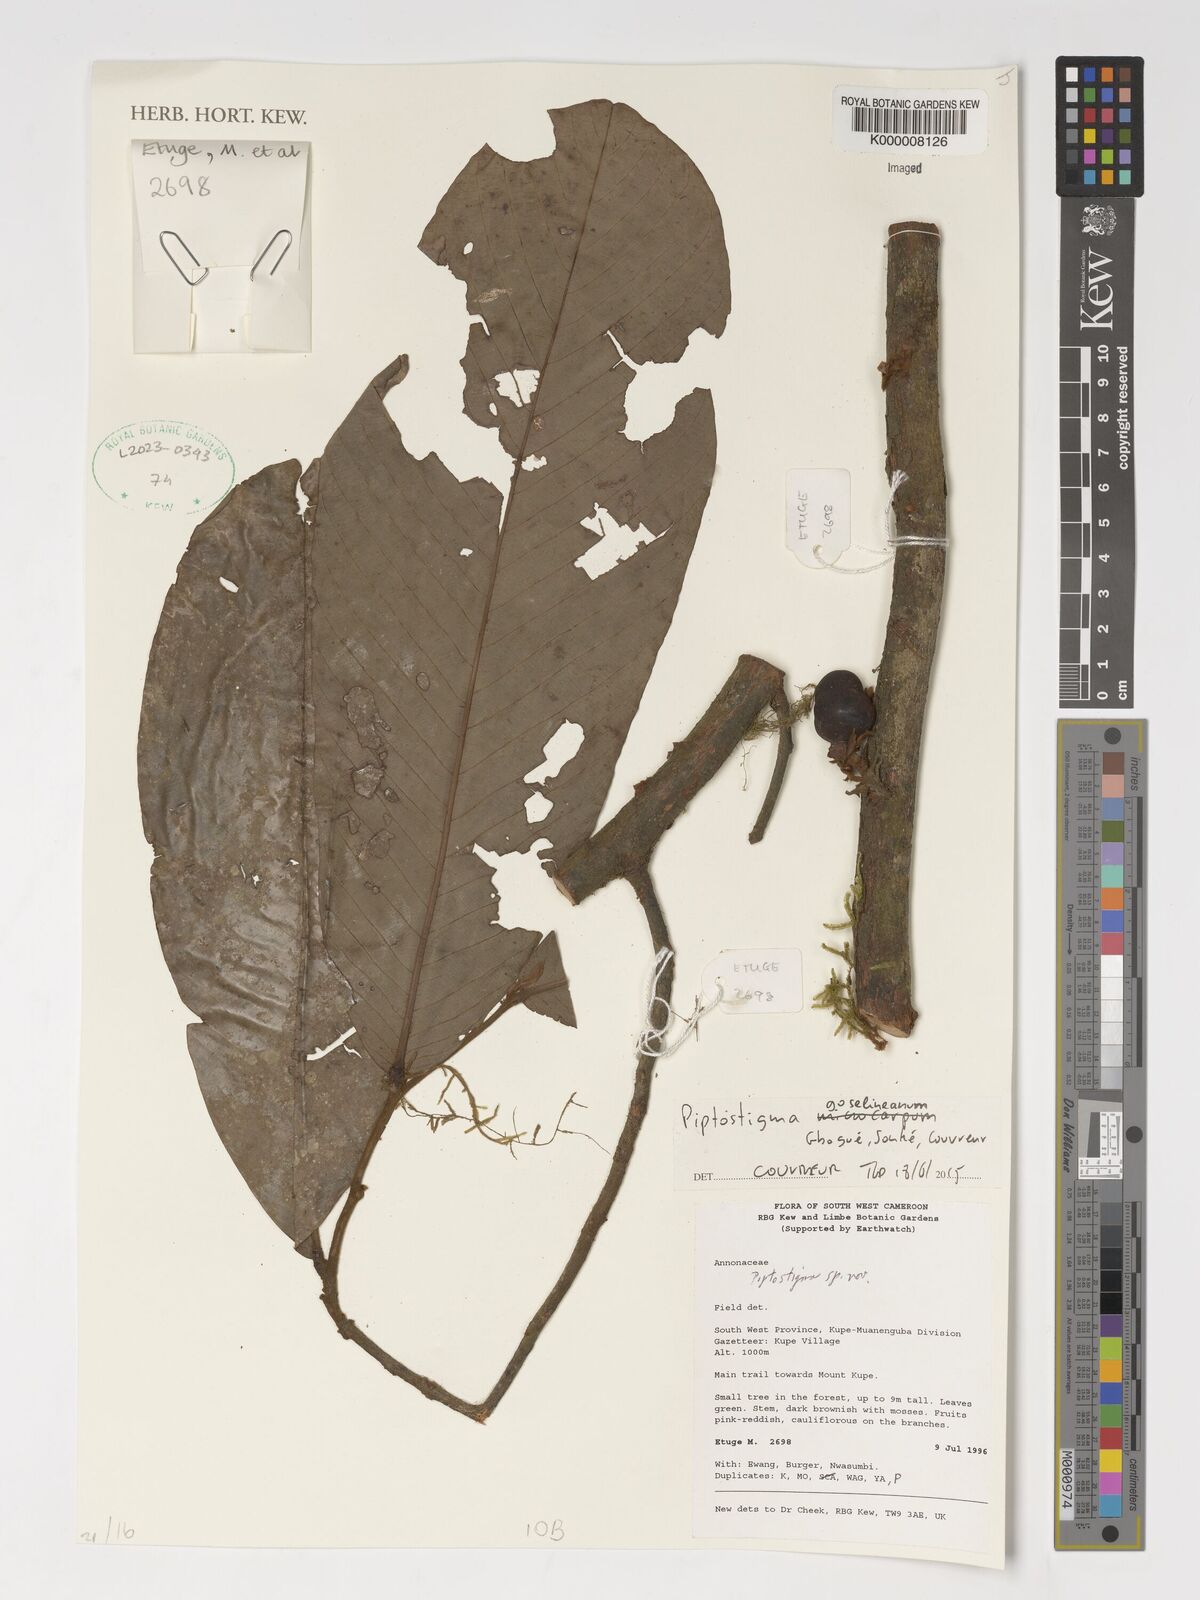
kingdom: Plantae
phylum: Tracheophyta
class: Magnoliopsida
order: Magnoliales
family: Annonaceae
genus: Piptostigma
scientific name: Piptostigma goslineanum
